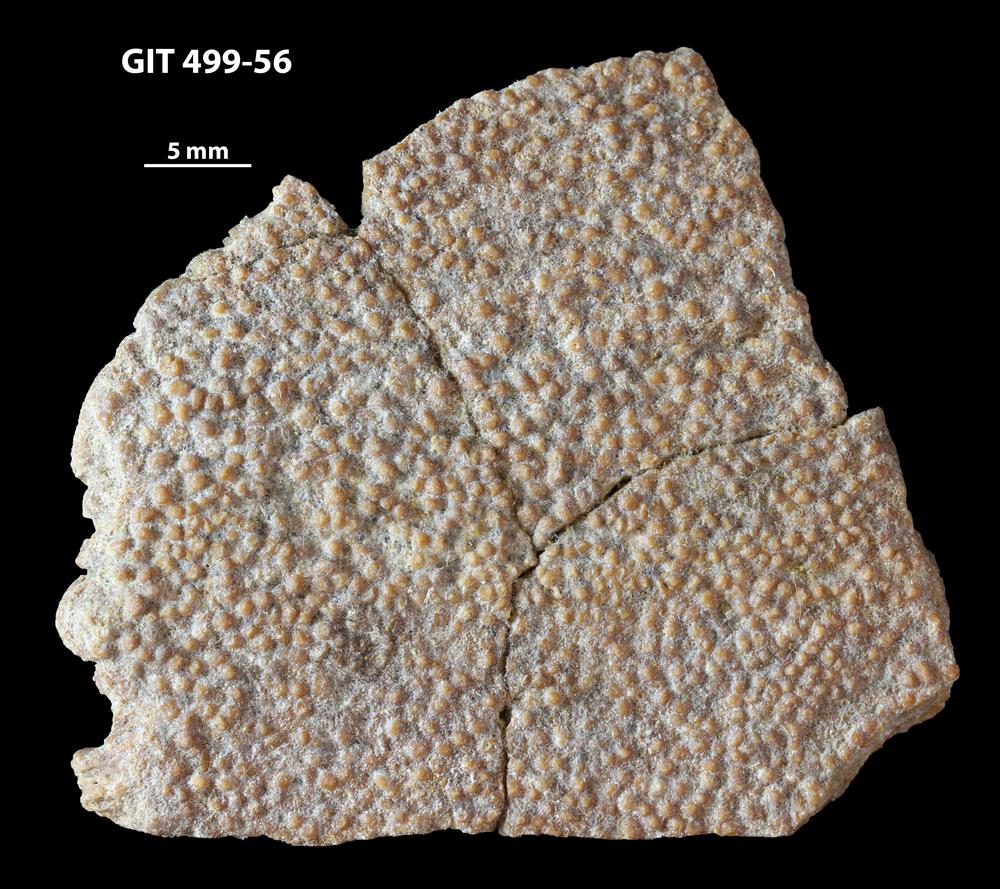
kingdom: Animalia
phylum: Chordata
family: Holoptychiidae
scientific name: Holoptychiidae
